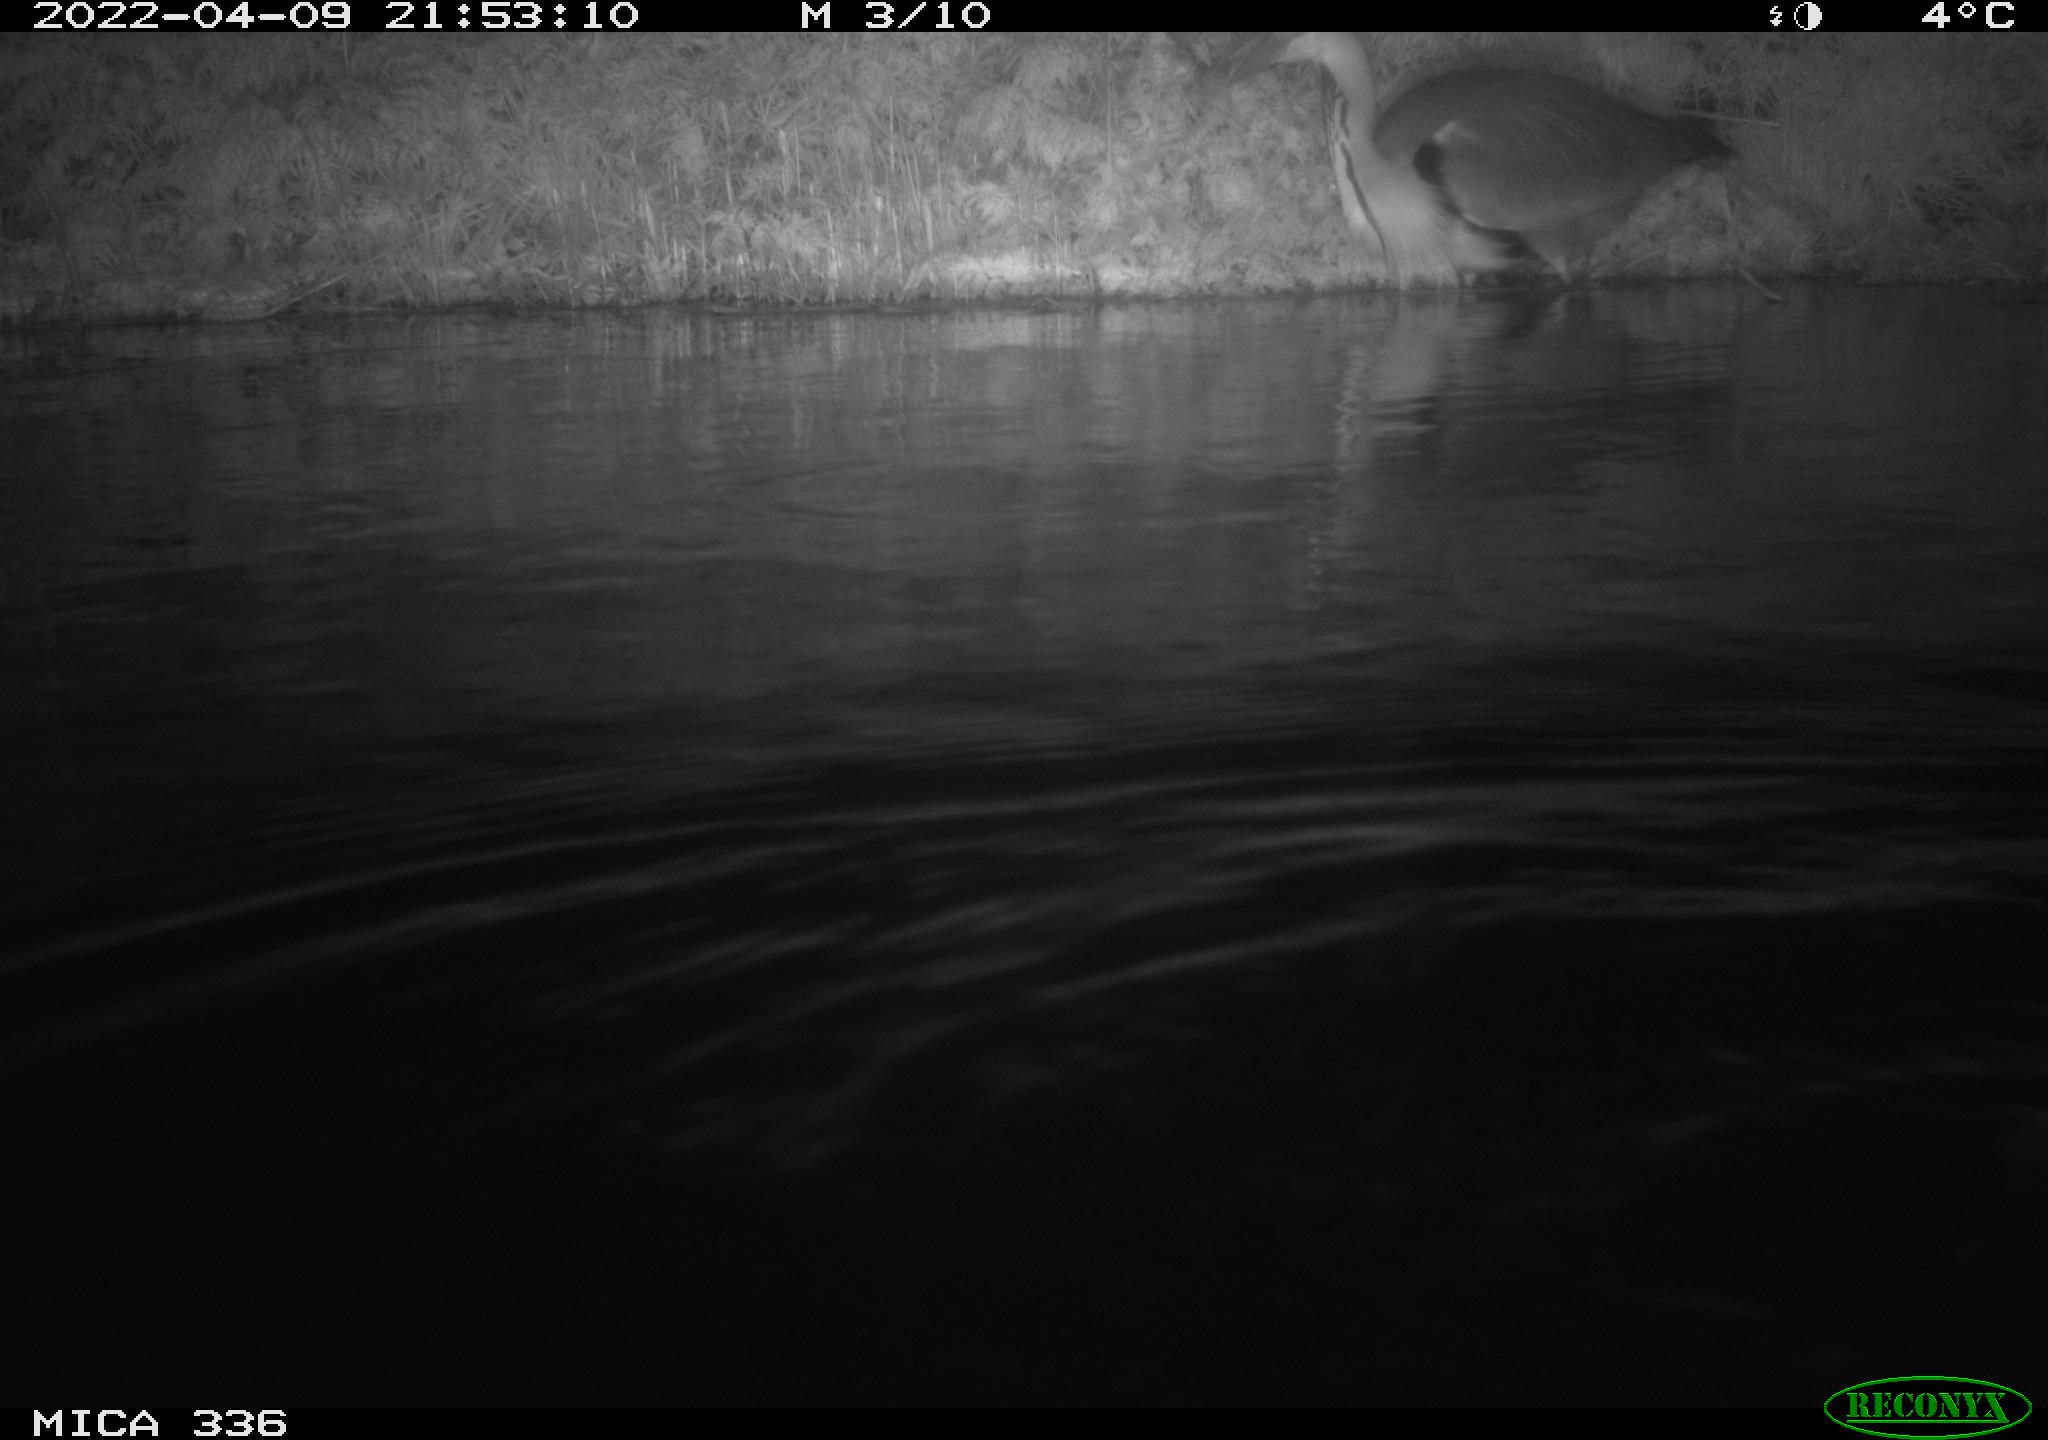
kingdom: Animalia
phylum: Chordata
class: Aves
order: Podicipediformes
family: Podicipedidae
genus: Podiceps
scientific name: Podiceps cristatus
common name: Great crested grebe
